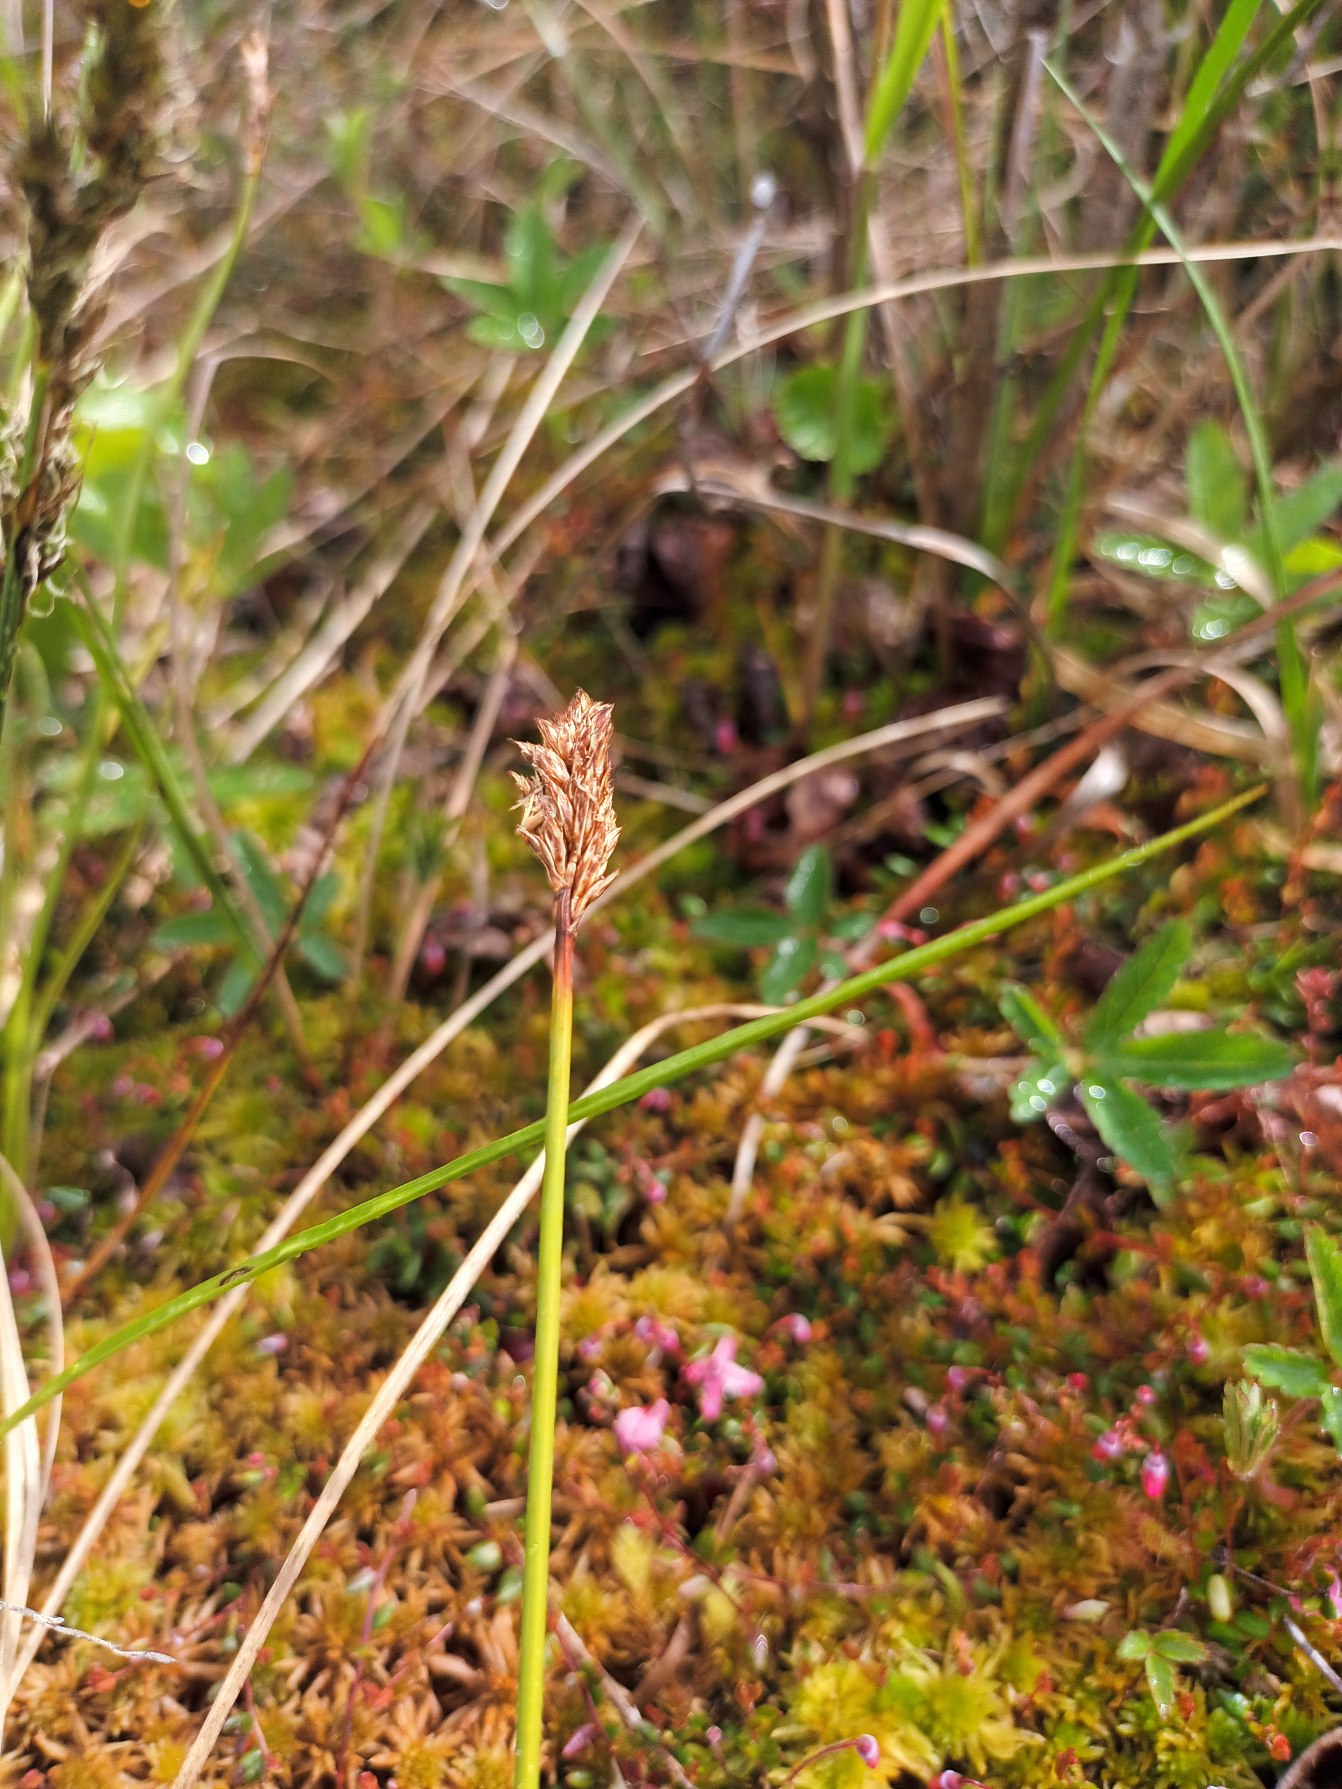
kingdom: Plantae
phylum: Tracheophyta
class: Liliopsida
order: Poales
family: Cyperaceae
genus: Carex
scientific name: Carex diandra
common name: Trindstænglet star
